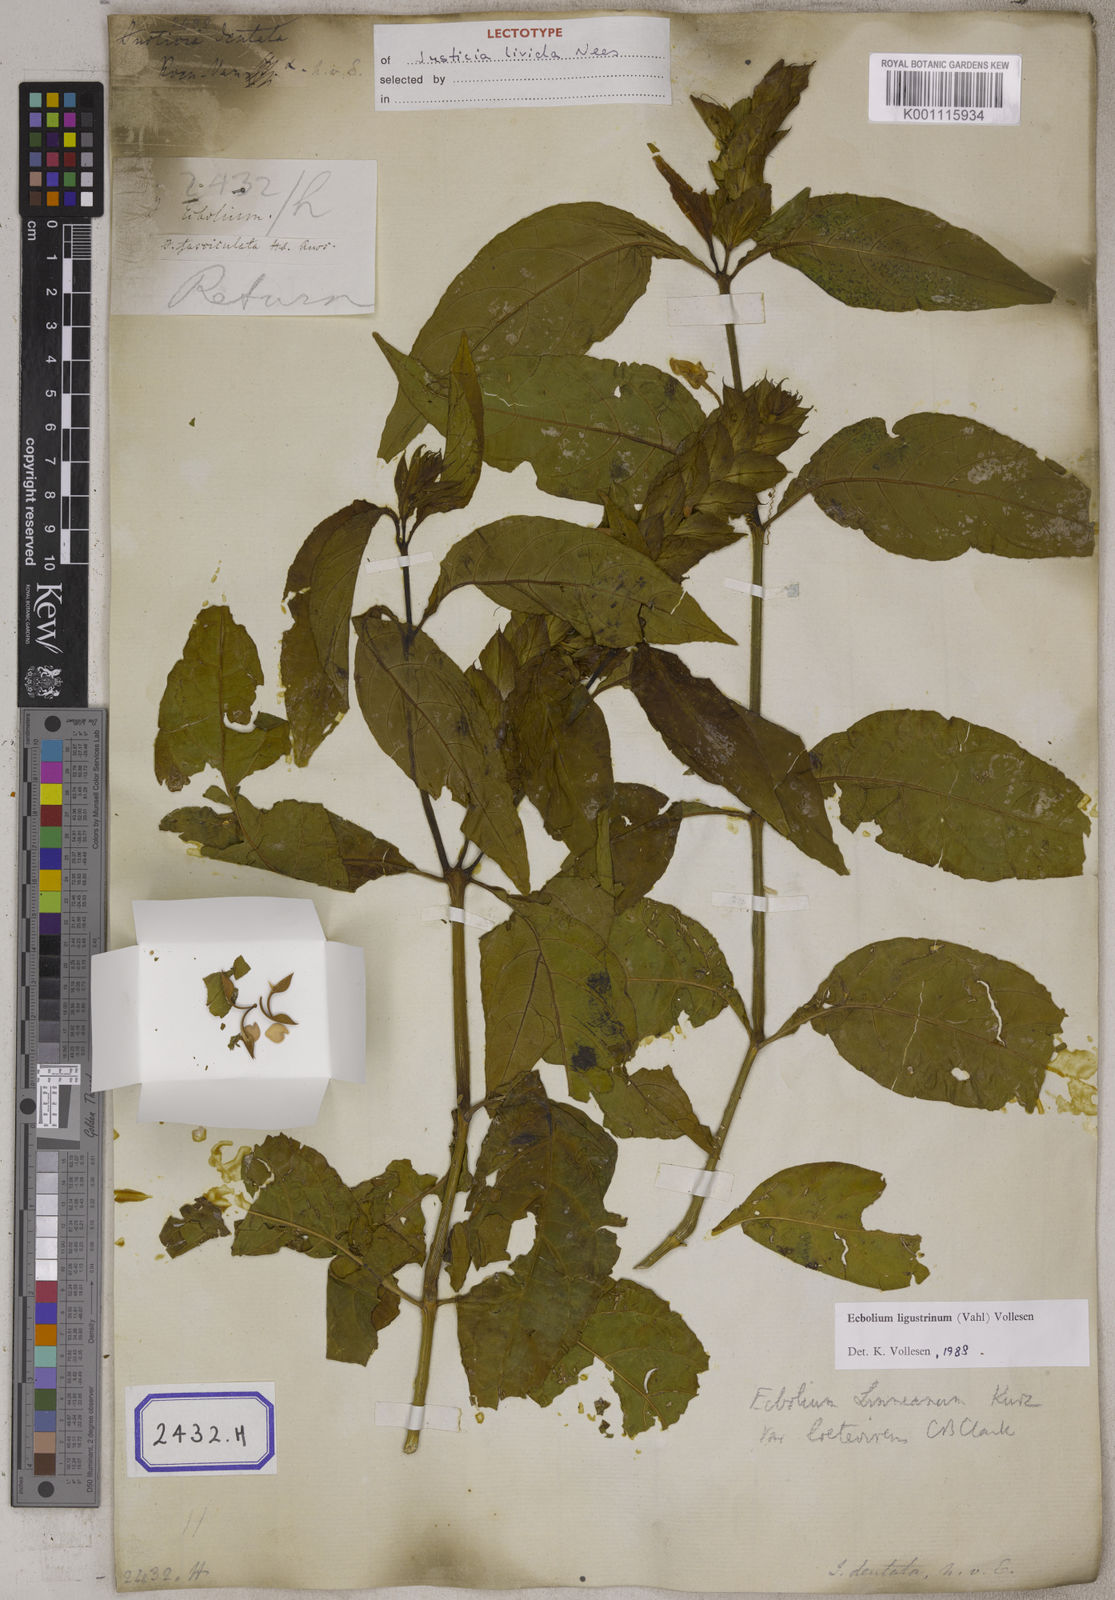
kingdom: Plantae
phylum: Tracheophyta
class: Magnoliopsida
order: Lamiales
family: Acanthaceae
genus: Ecbolium
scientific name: Ecbolium ligustrinum
